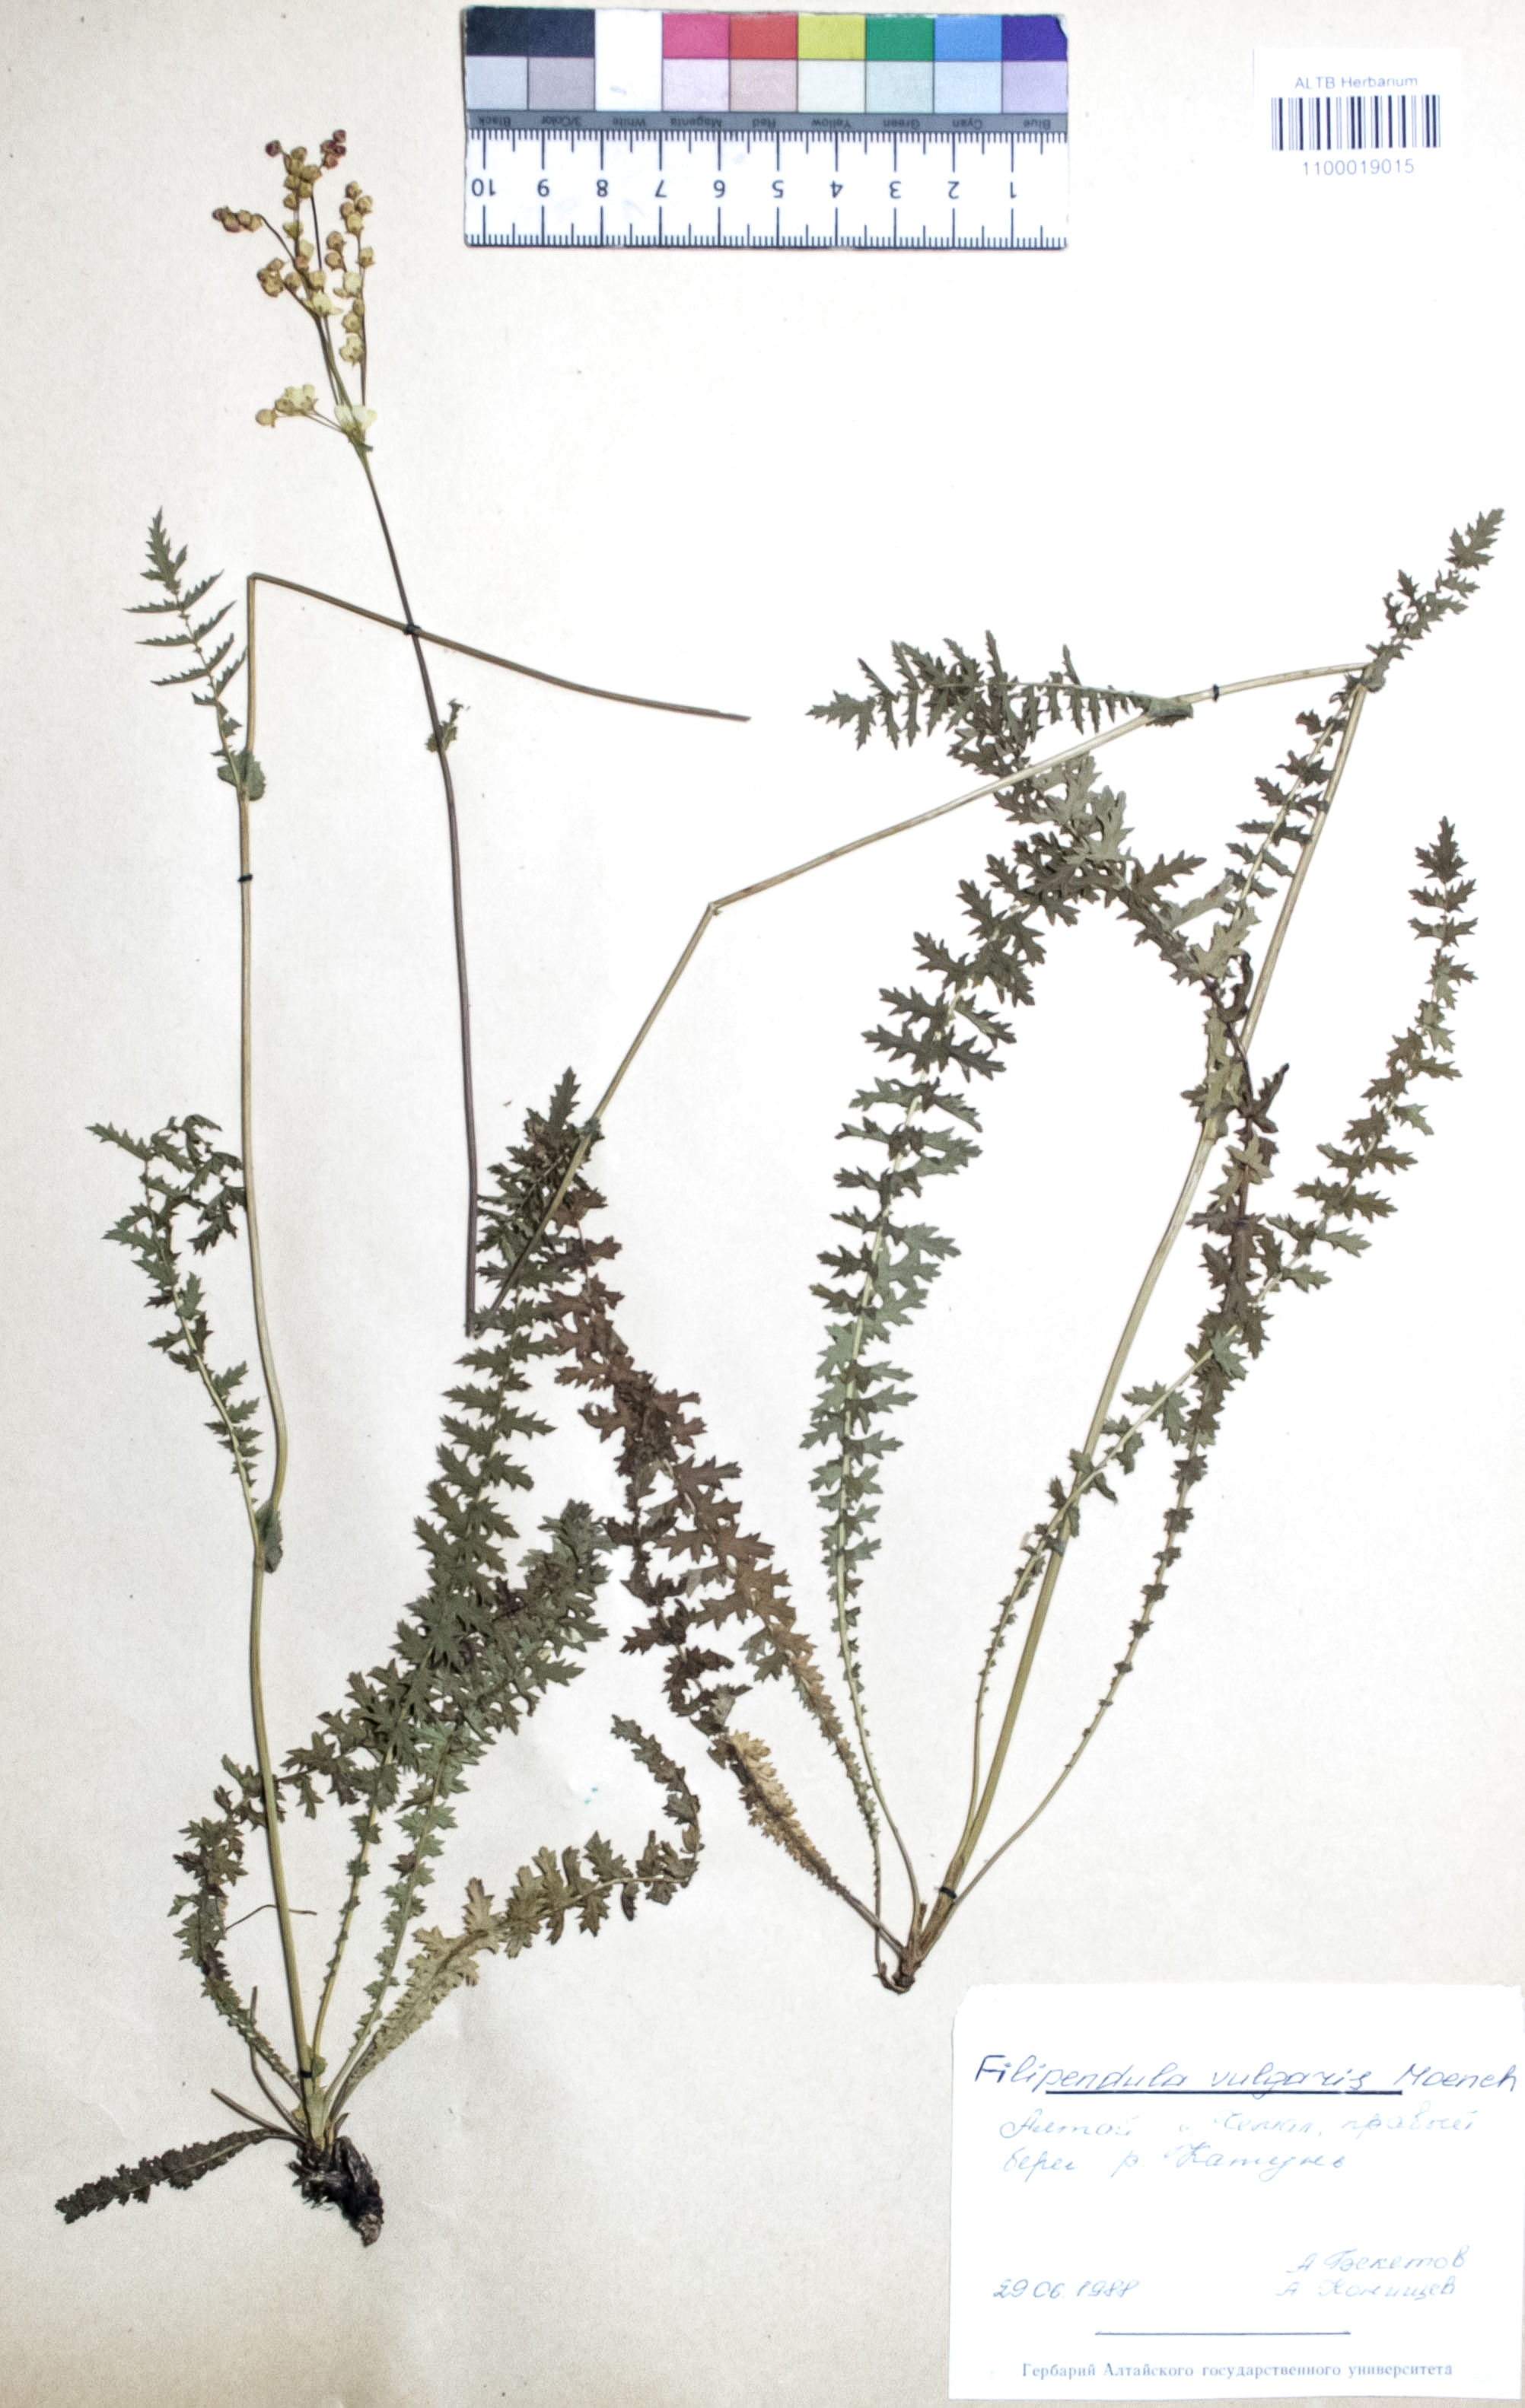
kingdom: Plantae
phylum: Tracheophyta
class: Magnoliopsida
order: Rosales
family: Rosaceae
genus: Filipendula
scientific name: Filipendula vulgaris
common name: Dropwort
